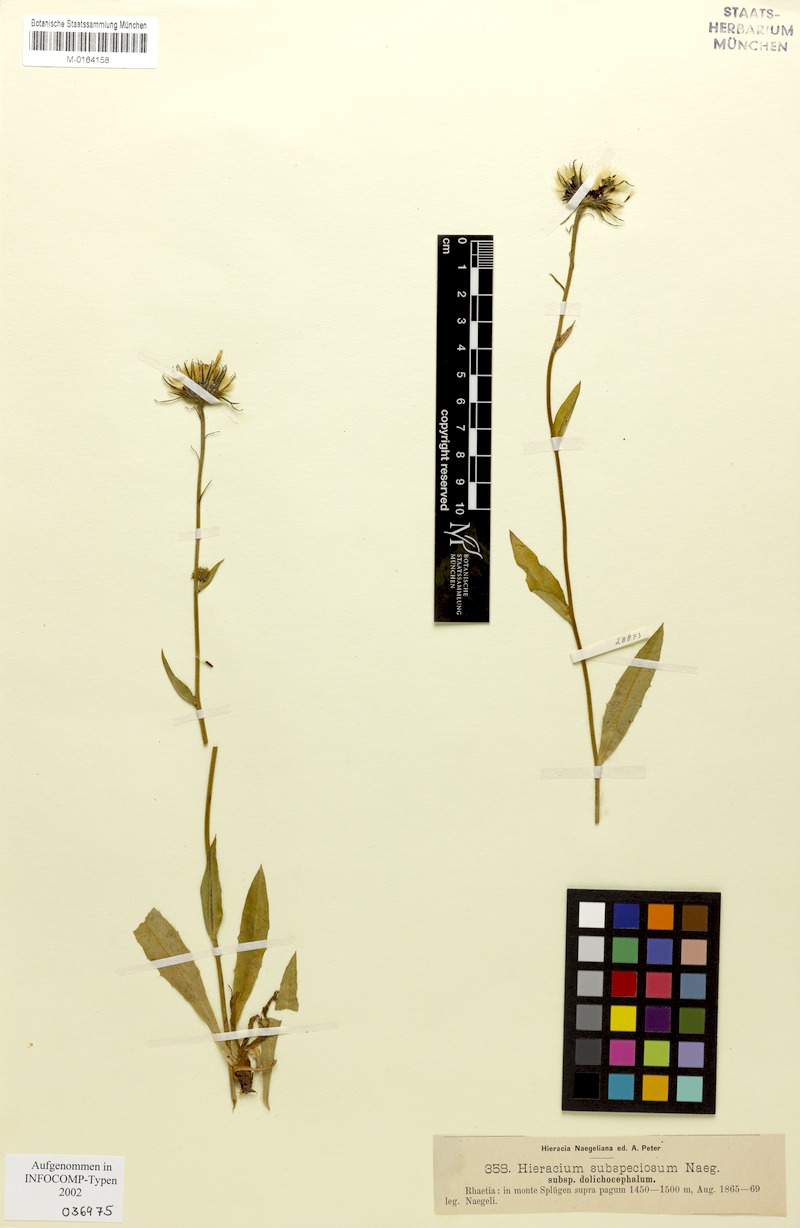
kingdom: Plantae
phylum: Tracheophyta
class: Magnoliopsida
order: Asterales
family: Asteraceae
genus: Hieracium
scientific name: Hieracium subspeciosum
